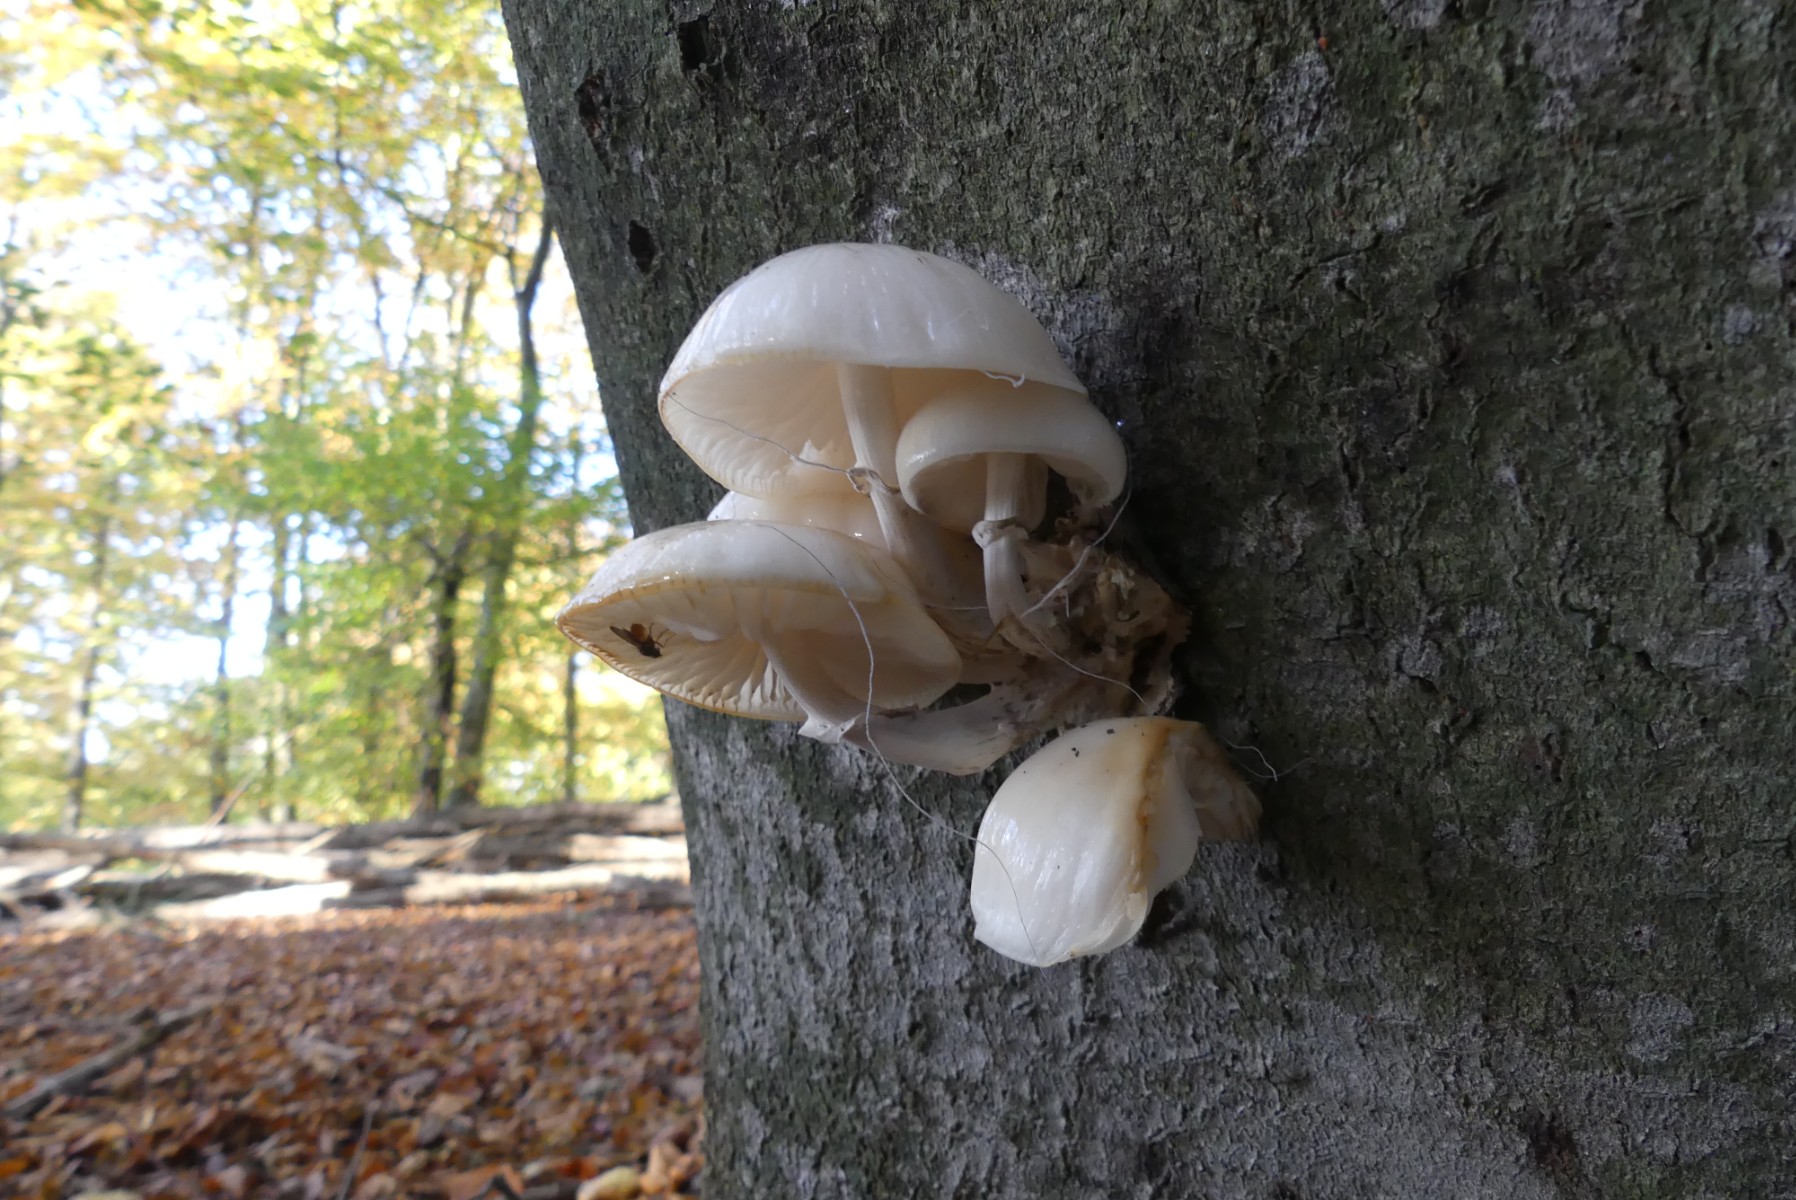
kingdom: Fungi
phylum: Basidiomycota
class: Agaricomycetes
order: Agaricales
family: Physalacriaceae
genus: Mucidula
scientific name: Mucidula mucida
